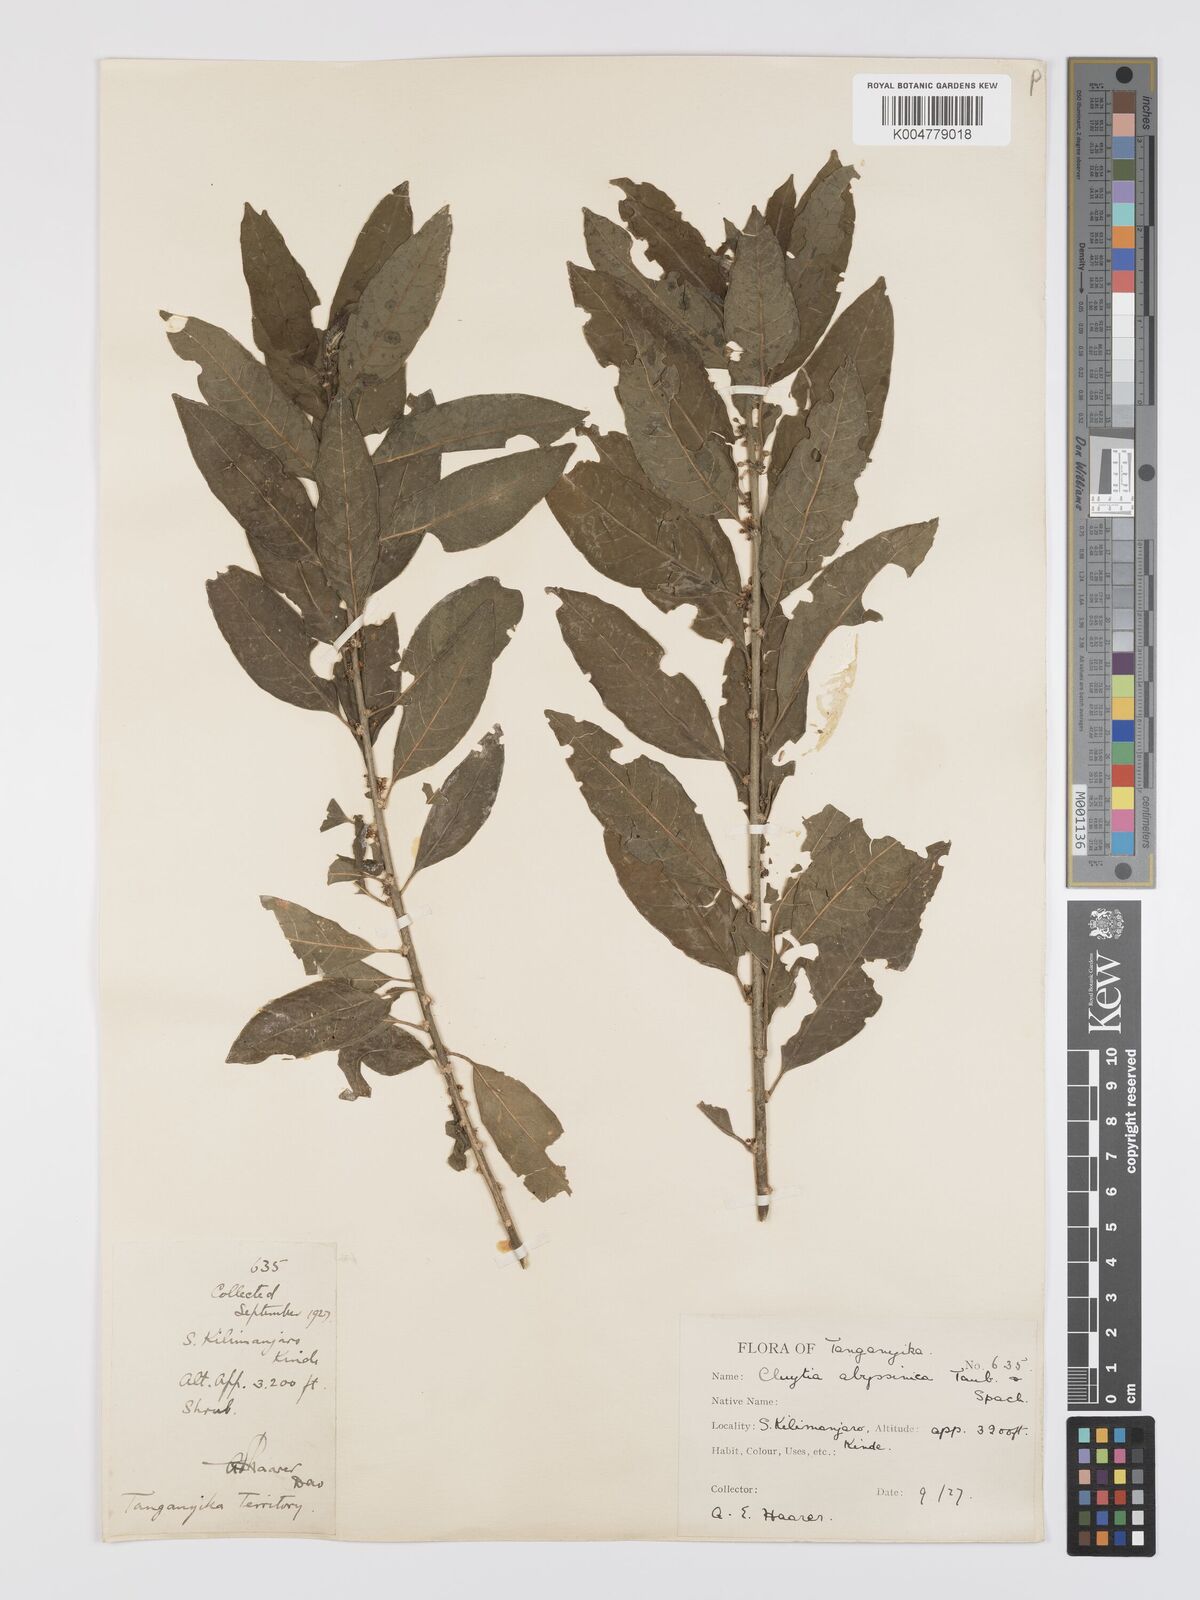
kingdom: Plantae
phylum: Tracheophyta
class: Magnoliopsida
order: Malpighiales
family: Peraceae
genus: Clutia
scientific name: Clutia abyssinica
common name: Large lightning bush
